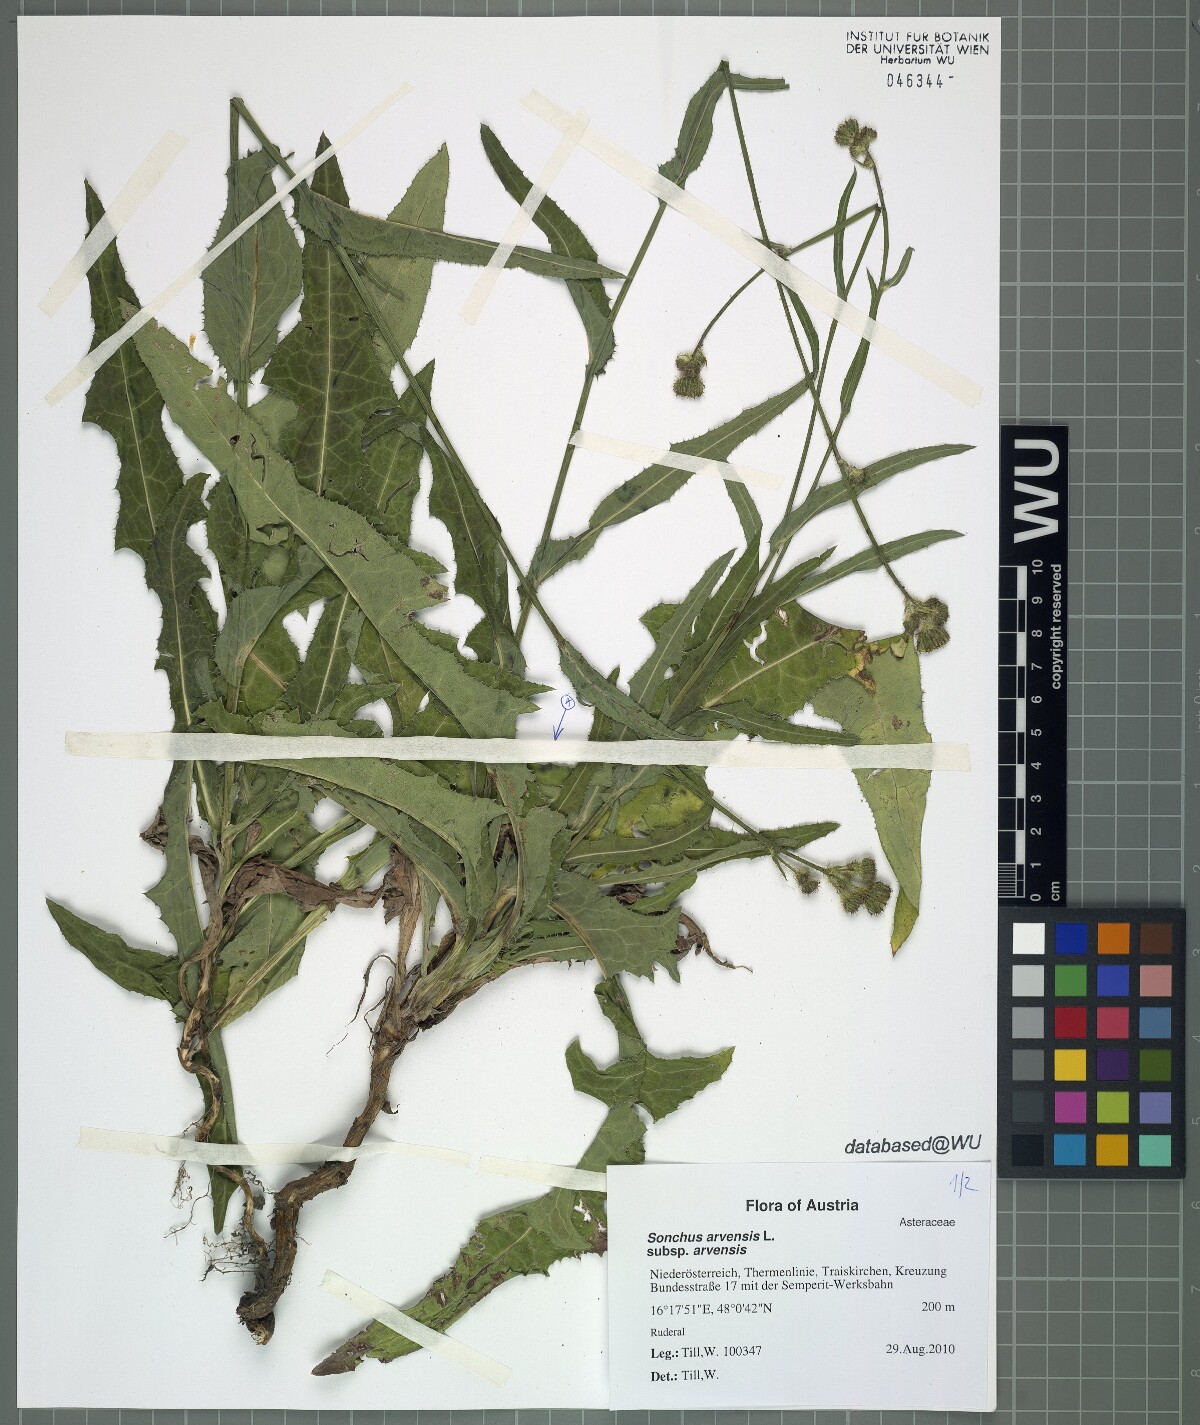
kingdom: Plantae
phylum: Tracheophyta
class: Magnoliopsida
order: Asterales
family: Asteraceae
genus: Sonchus
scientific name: Sonchus arvensis
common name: Perennial sow-thistle
